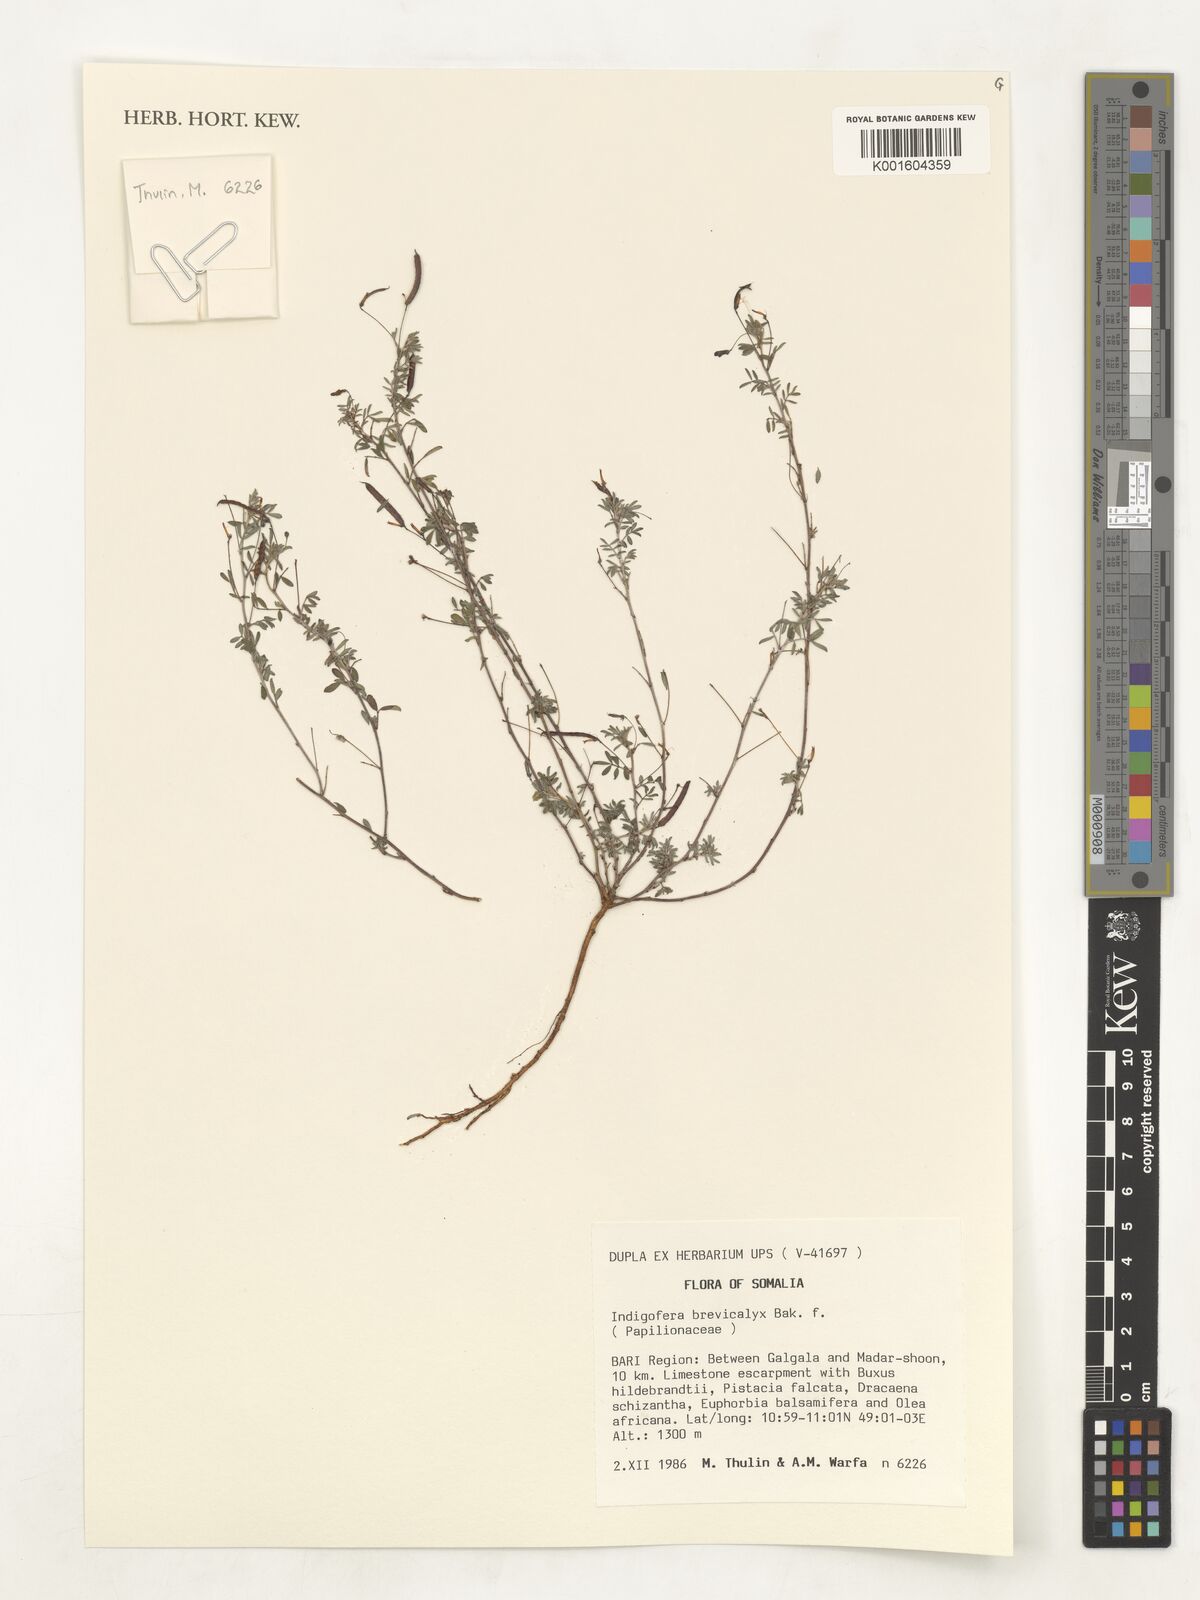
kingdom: Plantae
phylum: Tracheophyta
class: Magnoliopsida
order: Fabales
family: Fabaceae
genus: Indigofera
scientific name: Indigofera brevicalyx
